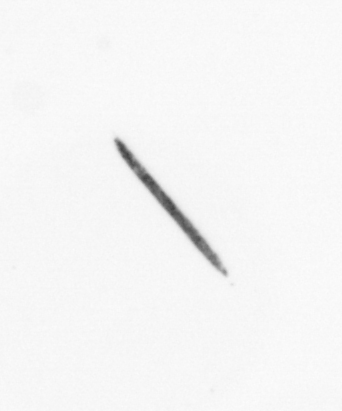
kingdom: Bacteria
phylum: Cyanobacteria
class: Cyanobacteriia
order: Cyanobacteriales
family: Microcoleaceae
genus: Trichodesmium
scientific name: Trichodesmium
